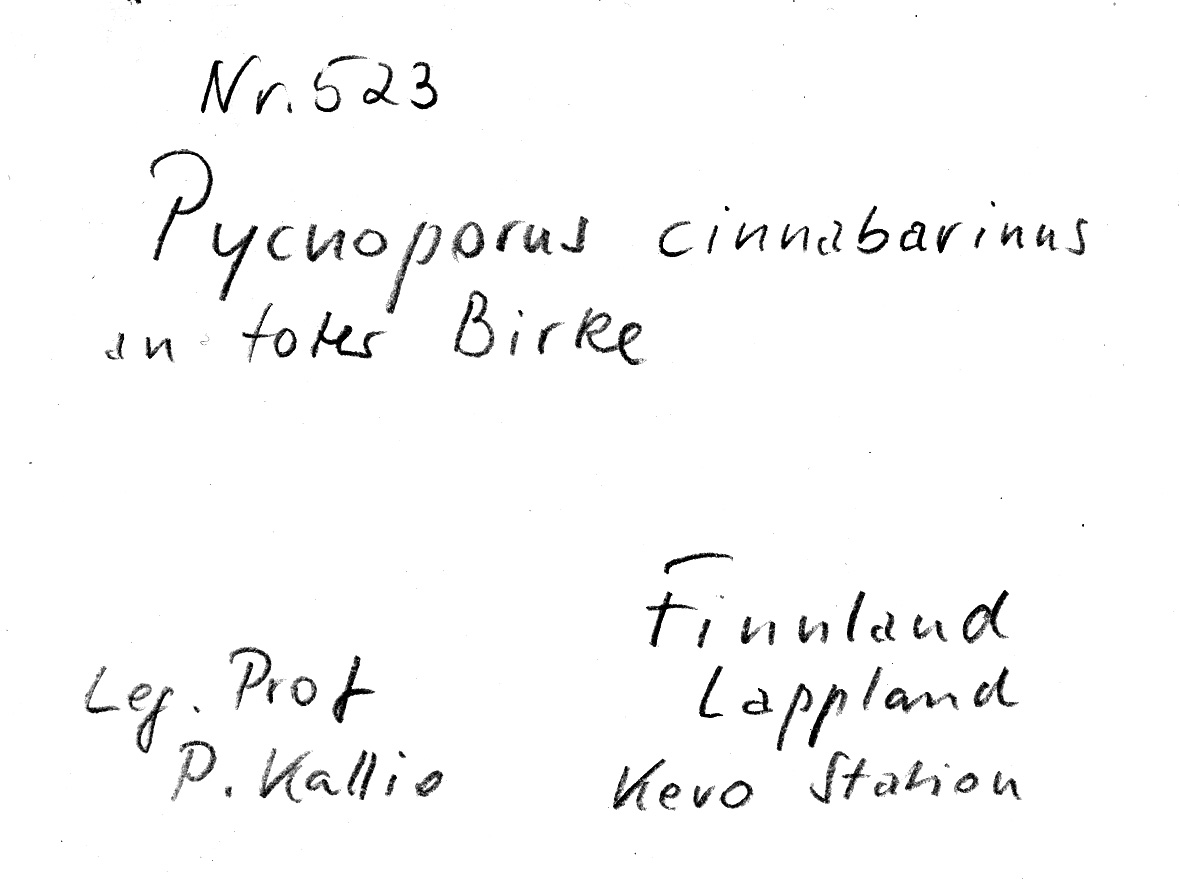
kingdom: Plantae
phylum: Tracheophyta
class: Magnoliopsida
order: Fagales
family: Betulaceae
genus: Betula
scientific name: Betula
